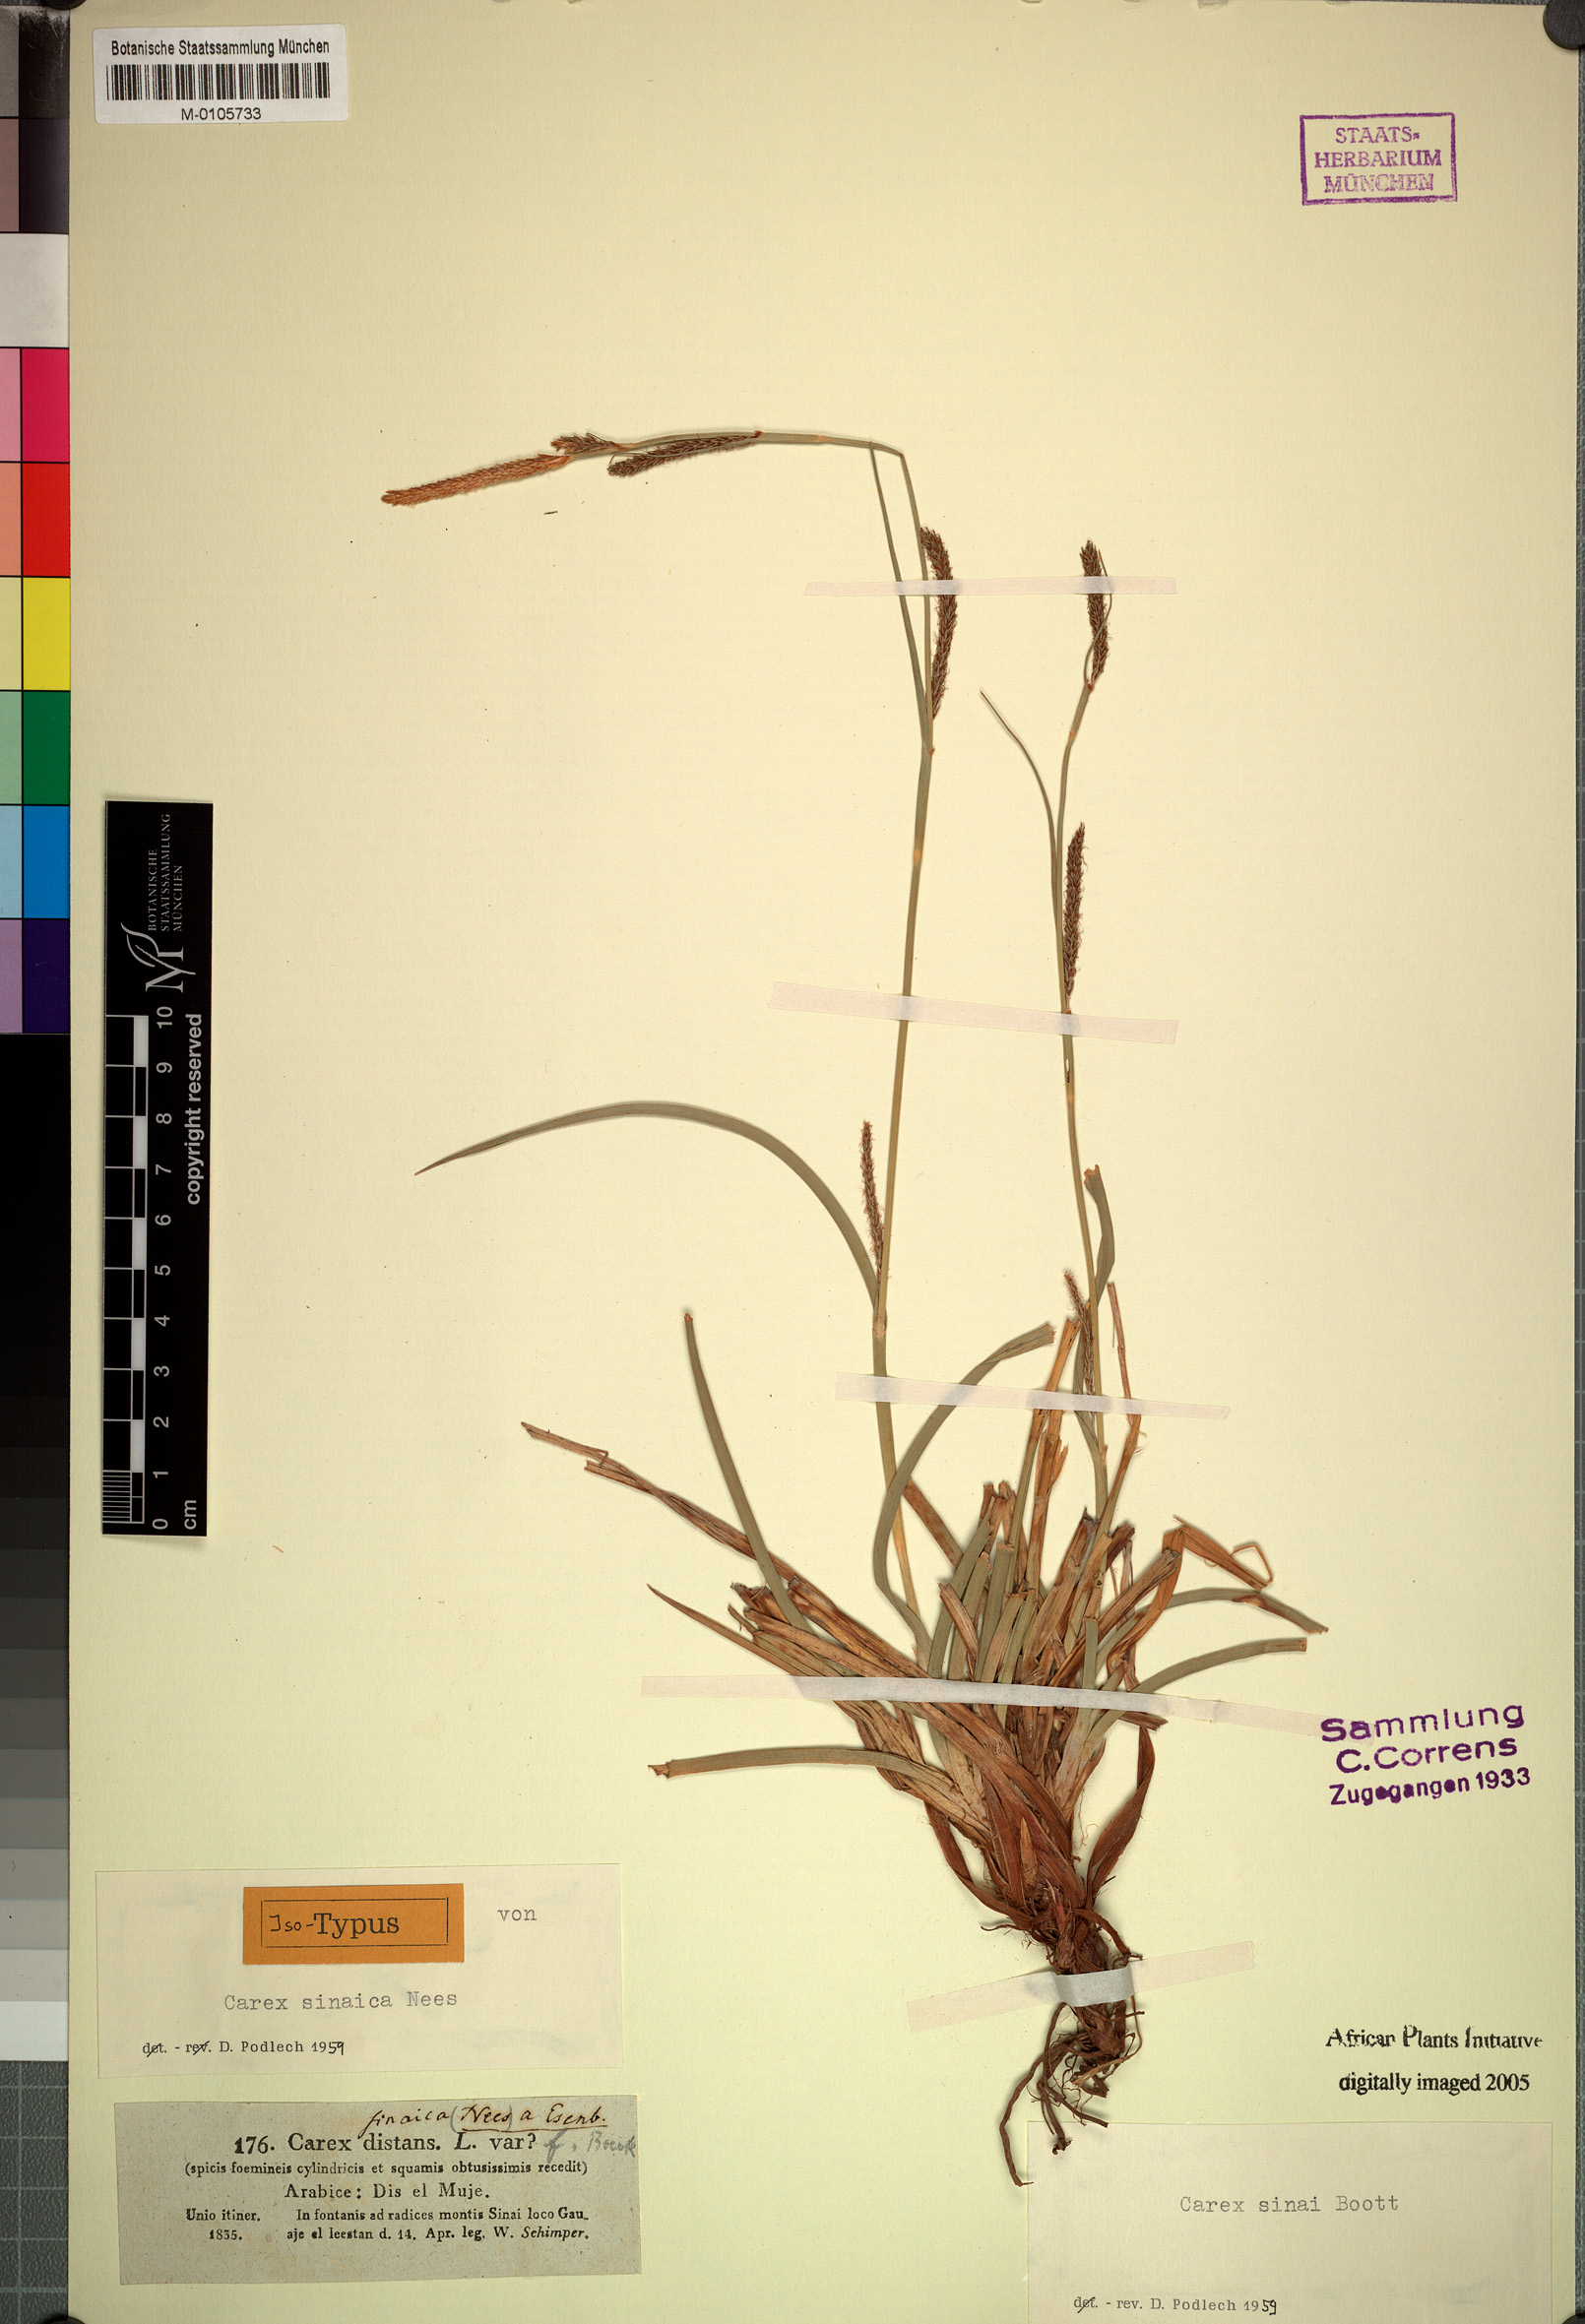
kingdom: Plantae
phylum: Tracheophyta
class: Liliopsida
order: Poales
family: Cyperaceae
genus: Carex
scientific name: Carex distans
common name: Distant sedge
